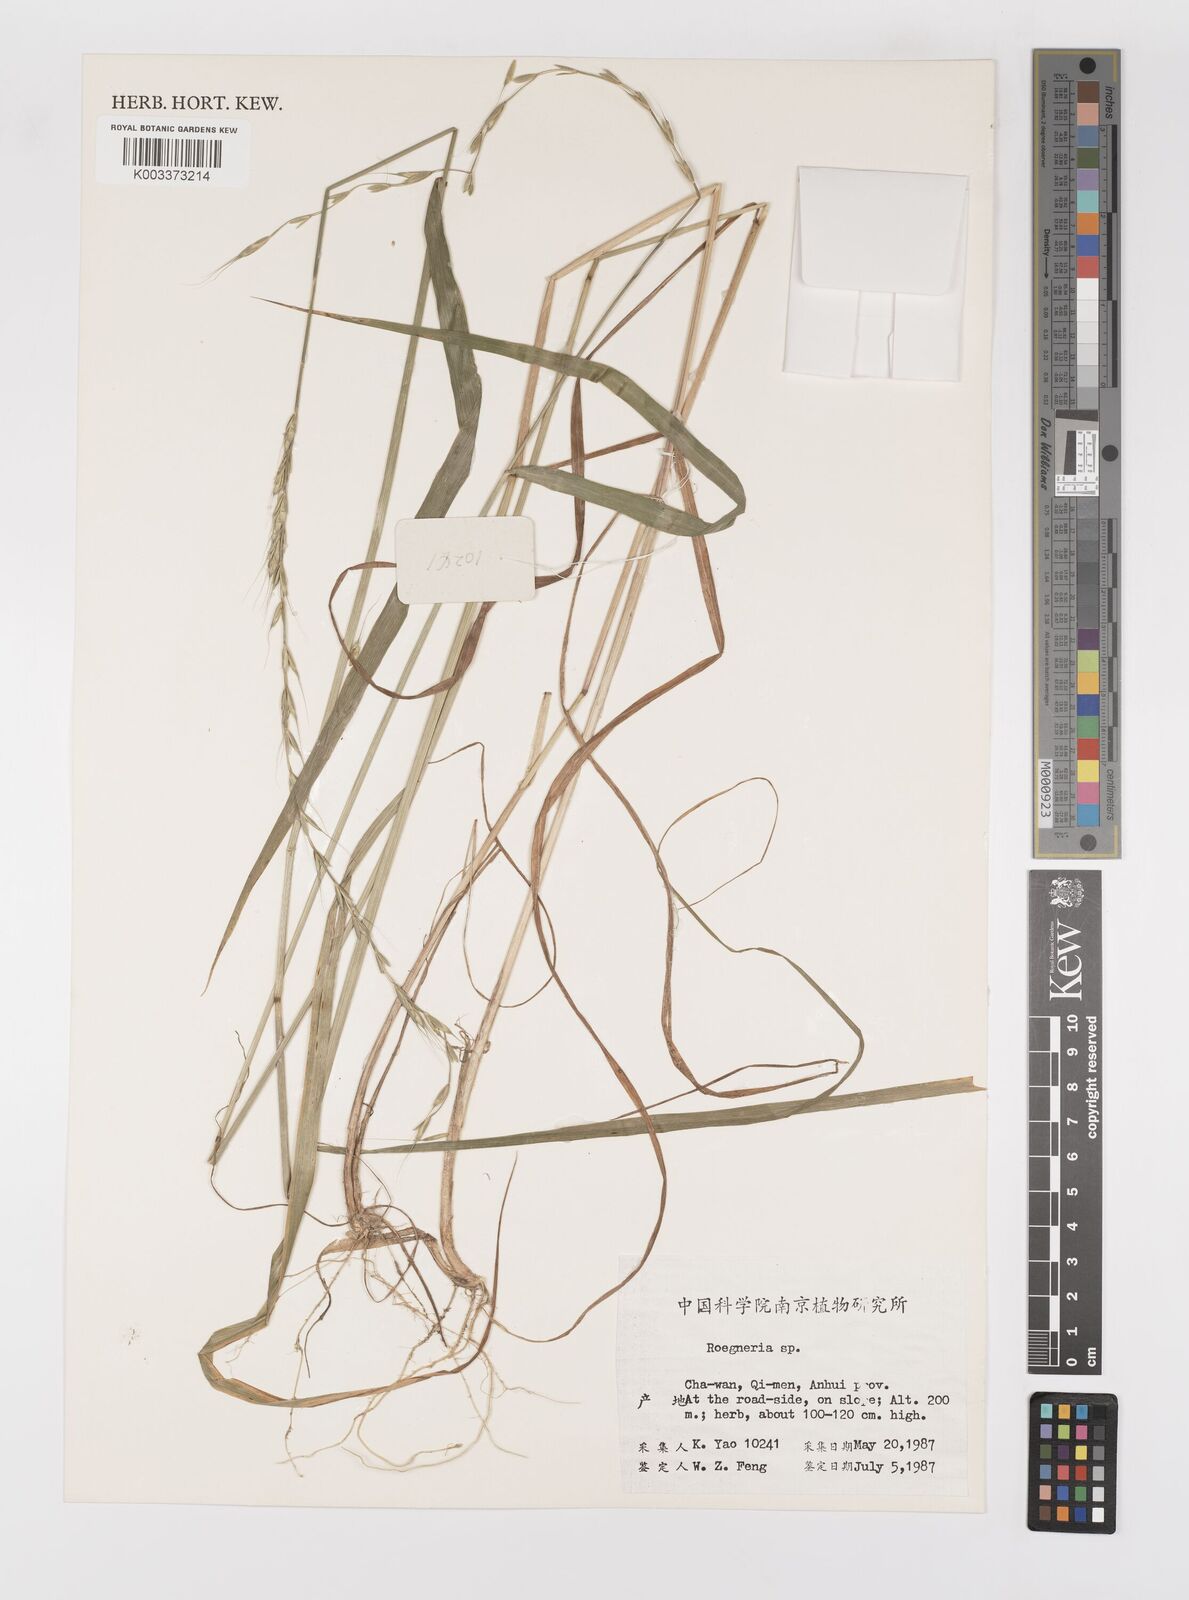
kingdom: Plantae
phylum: Tracheophyta
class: Liliopsida
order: Poales
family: Poaceae
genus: Elymus
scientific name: Elymus
